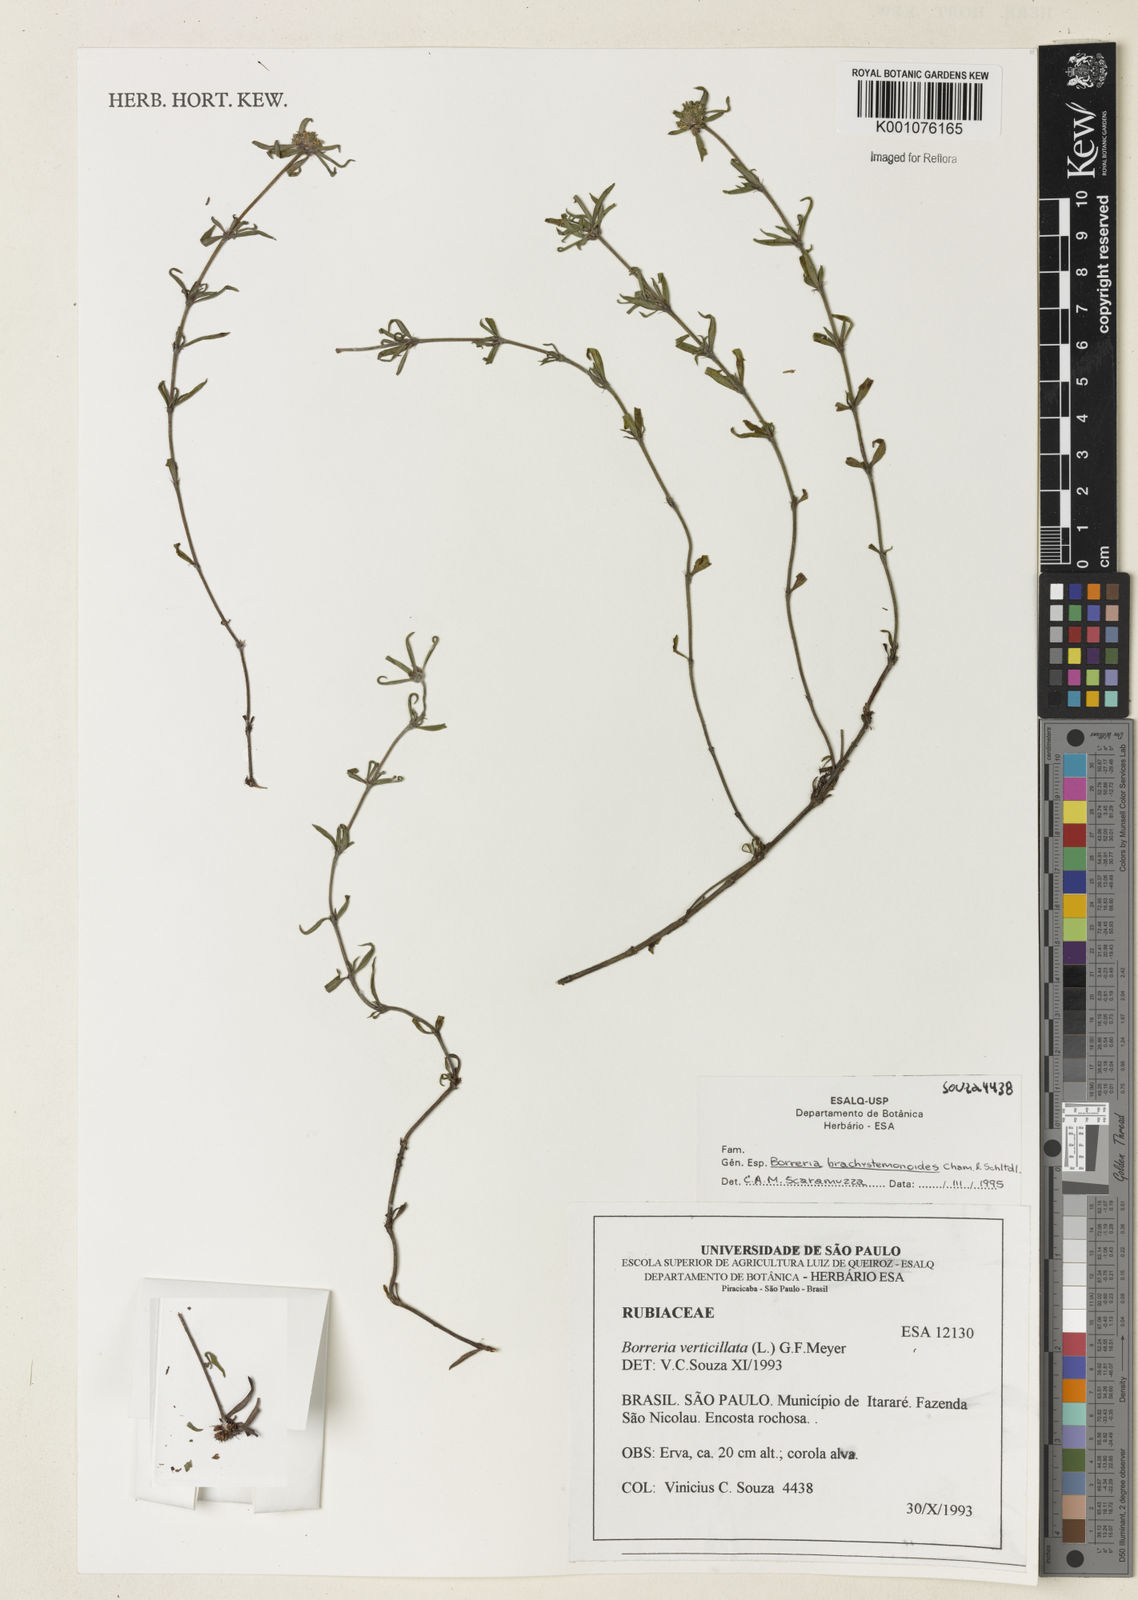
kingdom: Plantae
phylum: Tracheophyta
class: Magnoliopsida
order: Gentianales
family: Rubiaceae
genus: Spermacoce
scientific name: Spermacoce brachystemonoides
